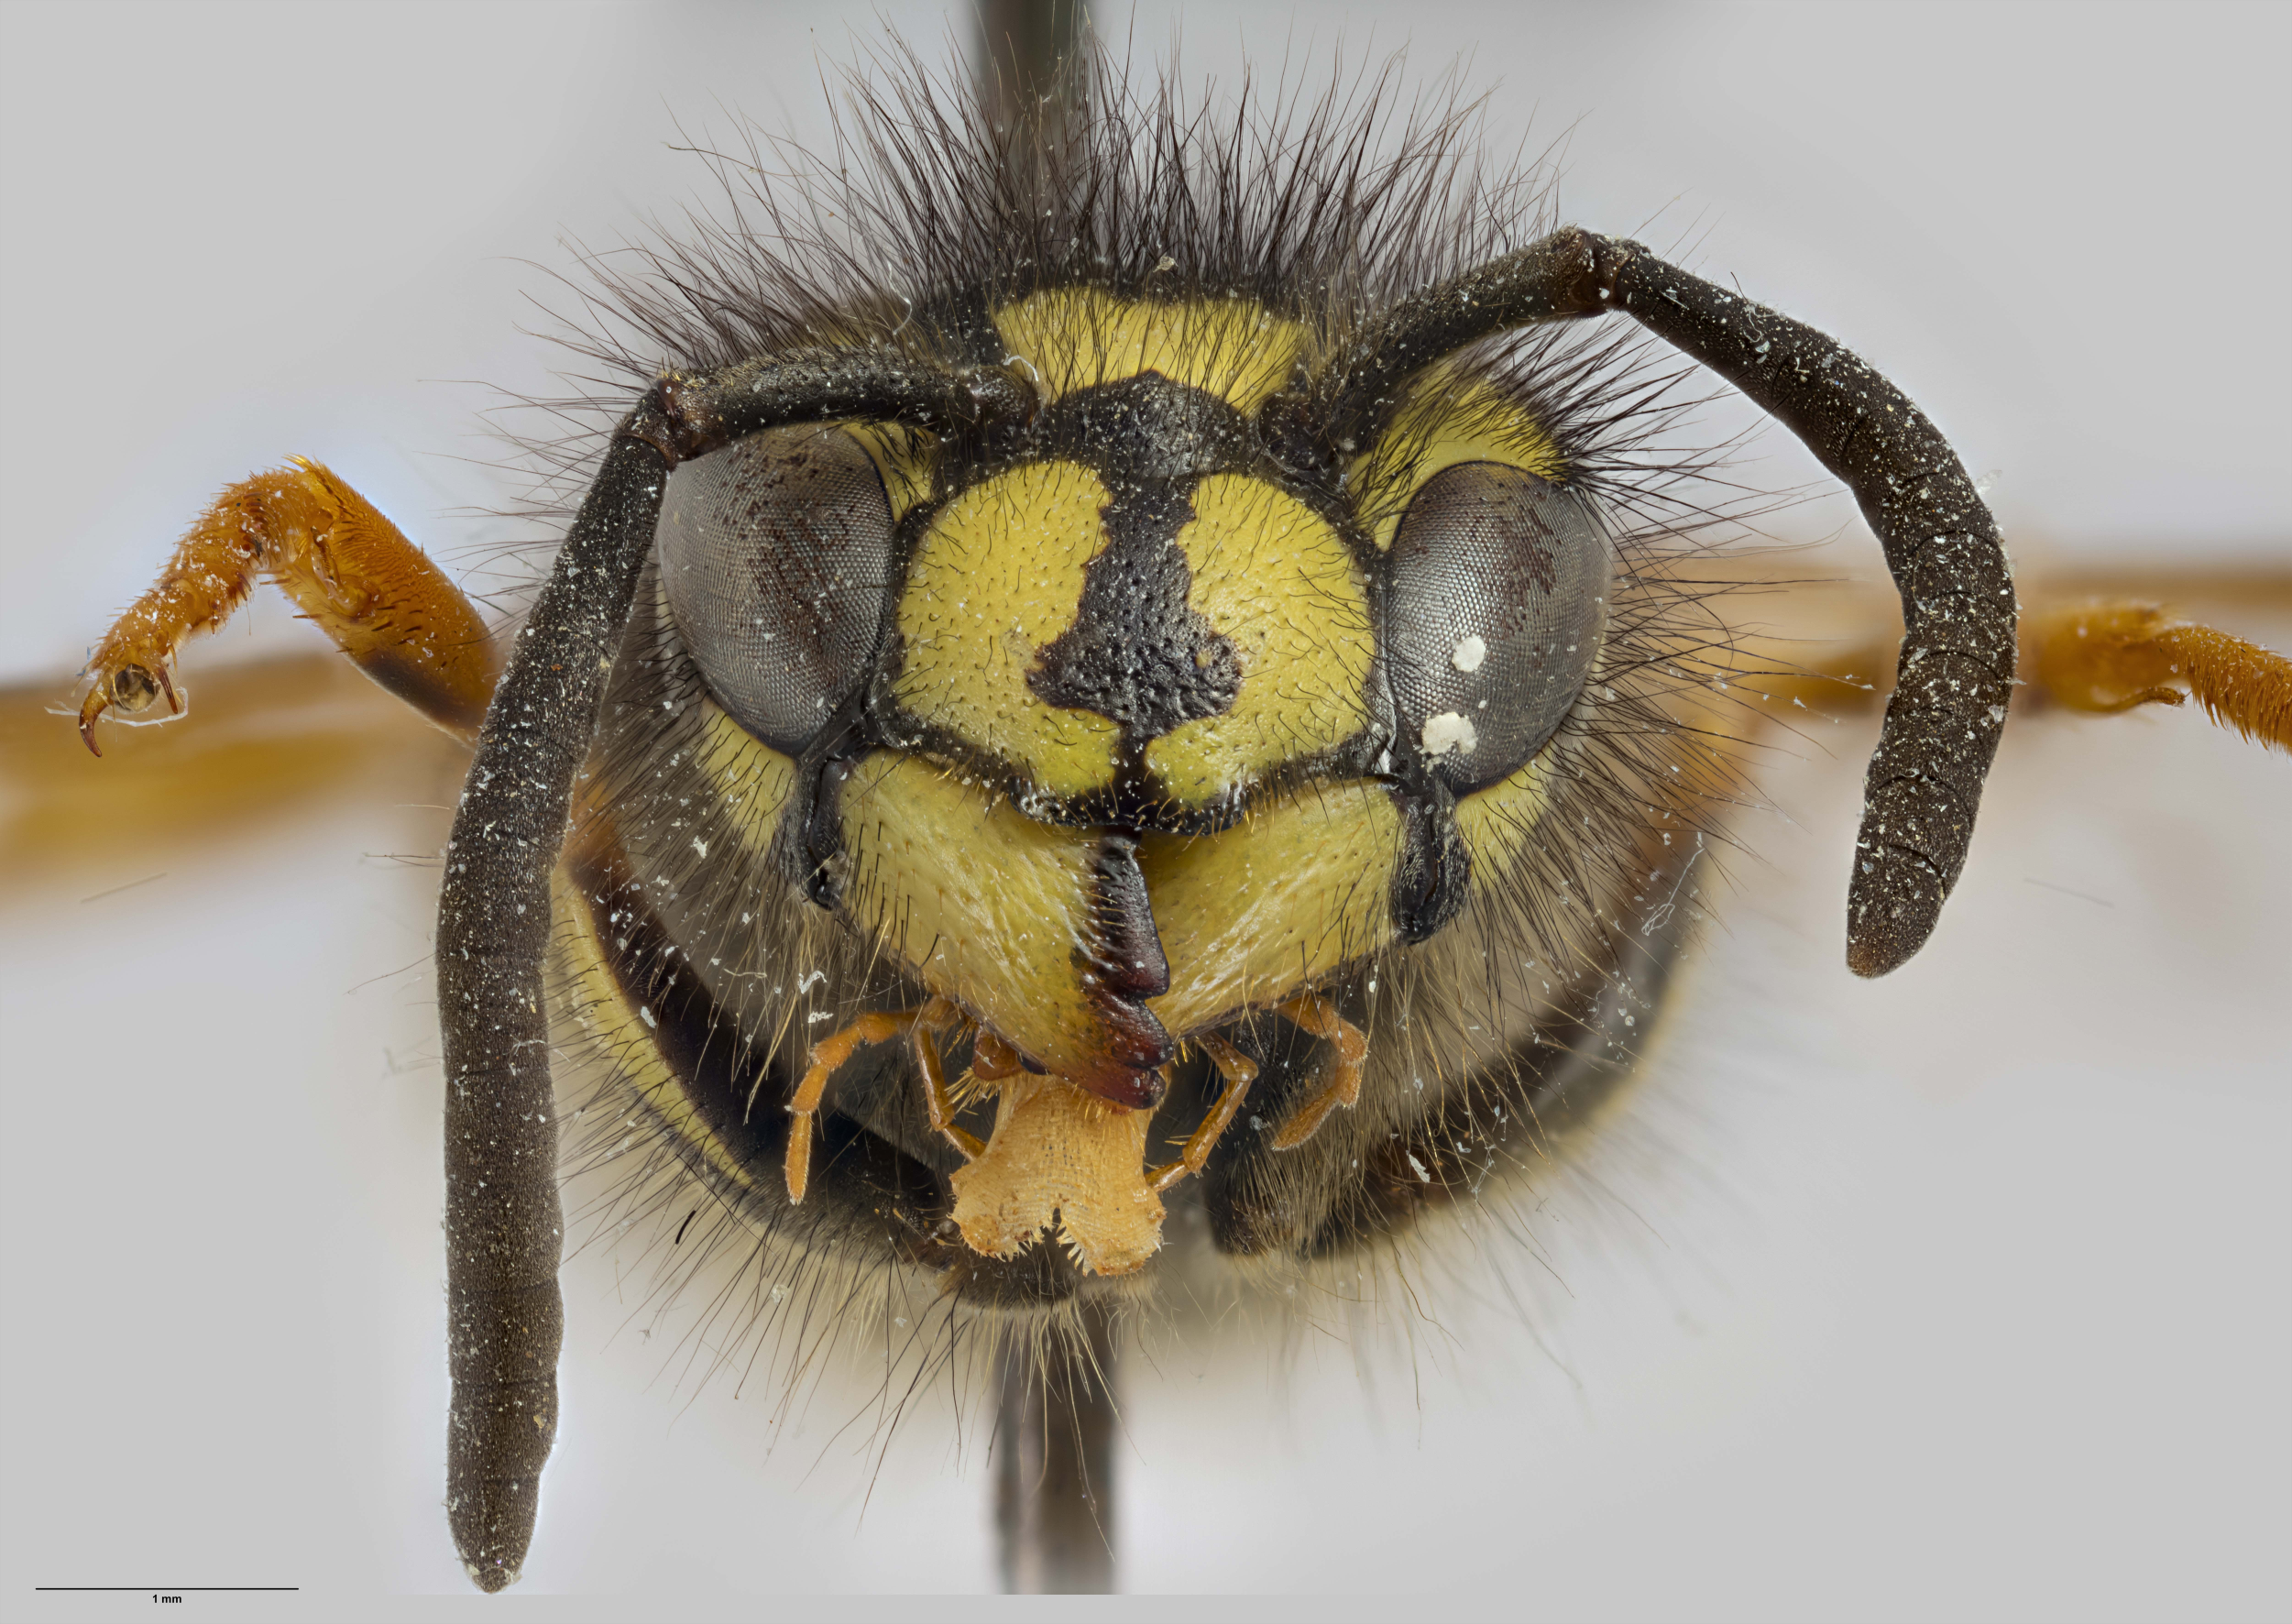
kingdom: Animalia
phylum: Arthropoda
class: Insecta
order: Hymenoptera
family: Vespidae
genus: Vespula
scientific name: Vespula vulgaris
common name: Common wasp
